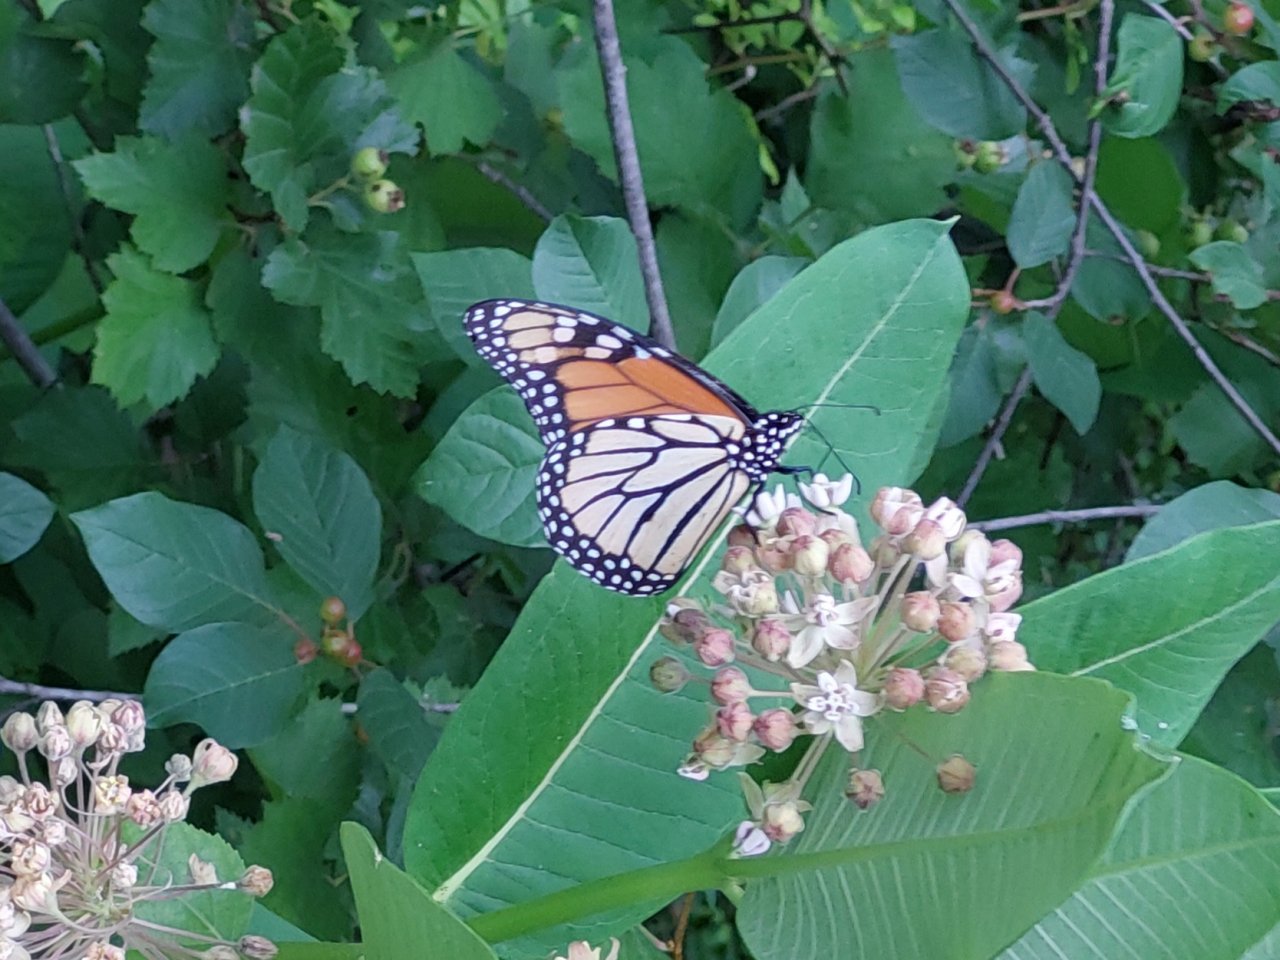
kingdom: Animalia
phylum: Arthropoda
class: Insecta
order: Lepidoptera
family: Nymphalidae
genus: Danaus
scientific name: Danaus plexippus
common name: Monarch
